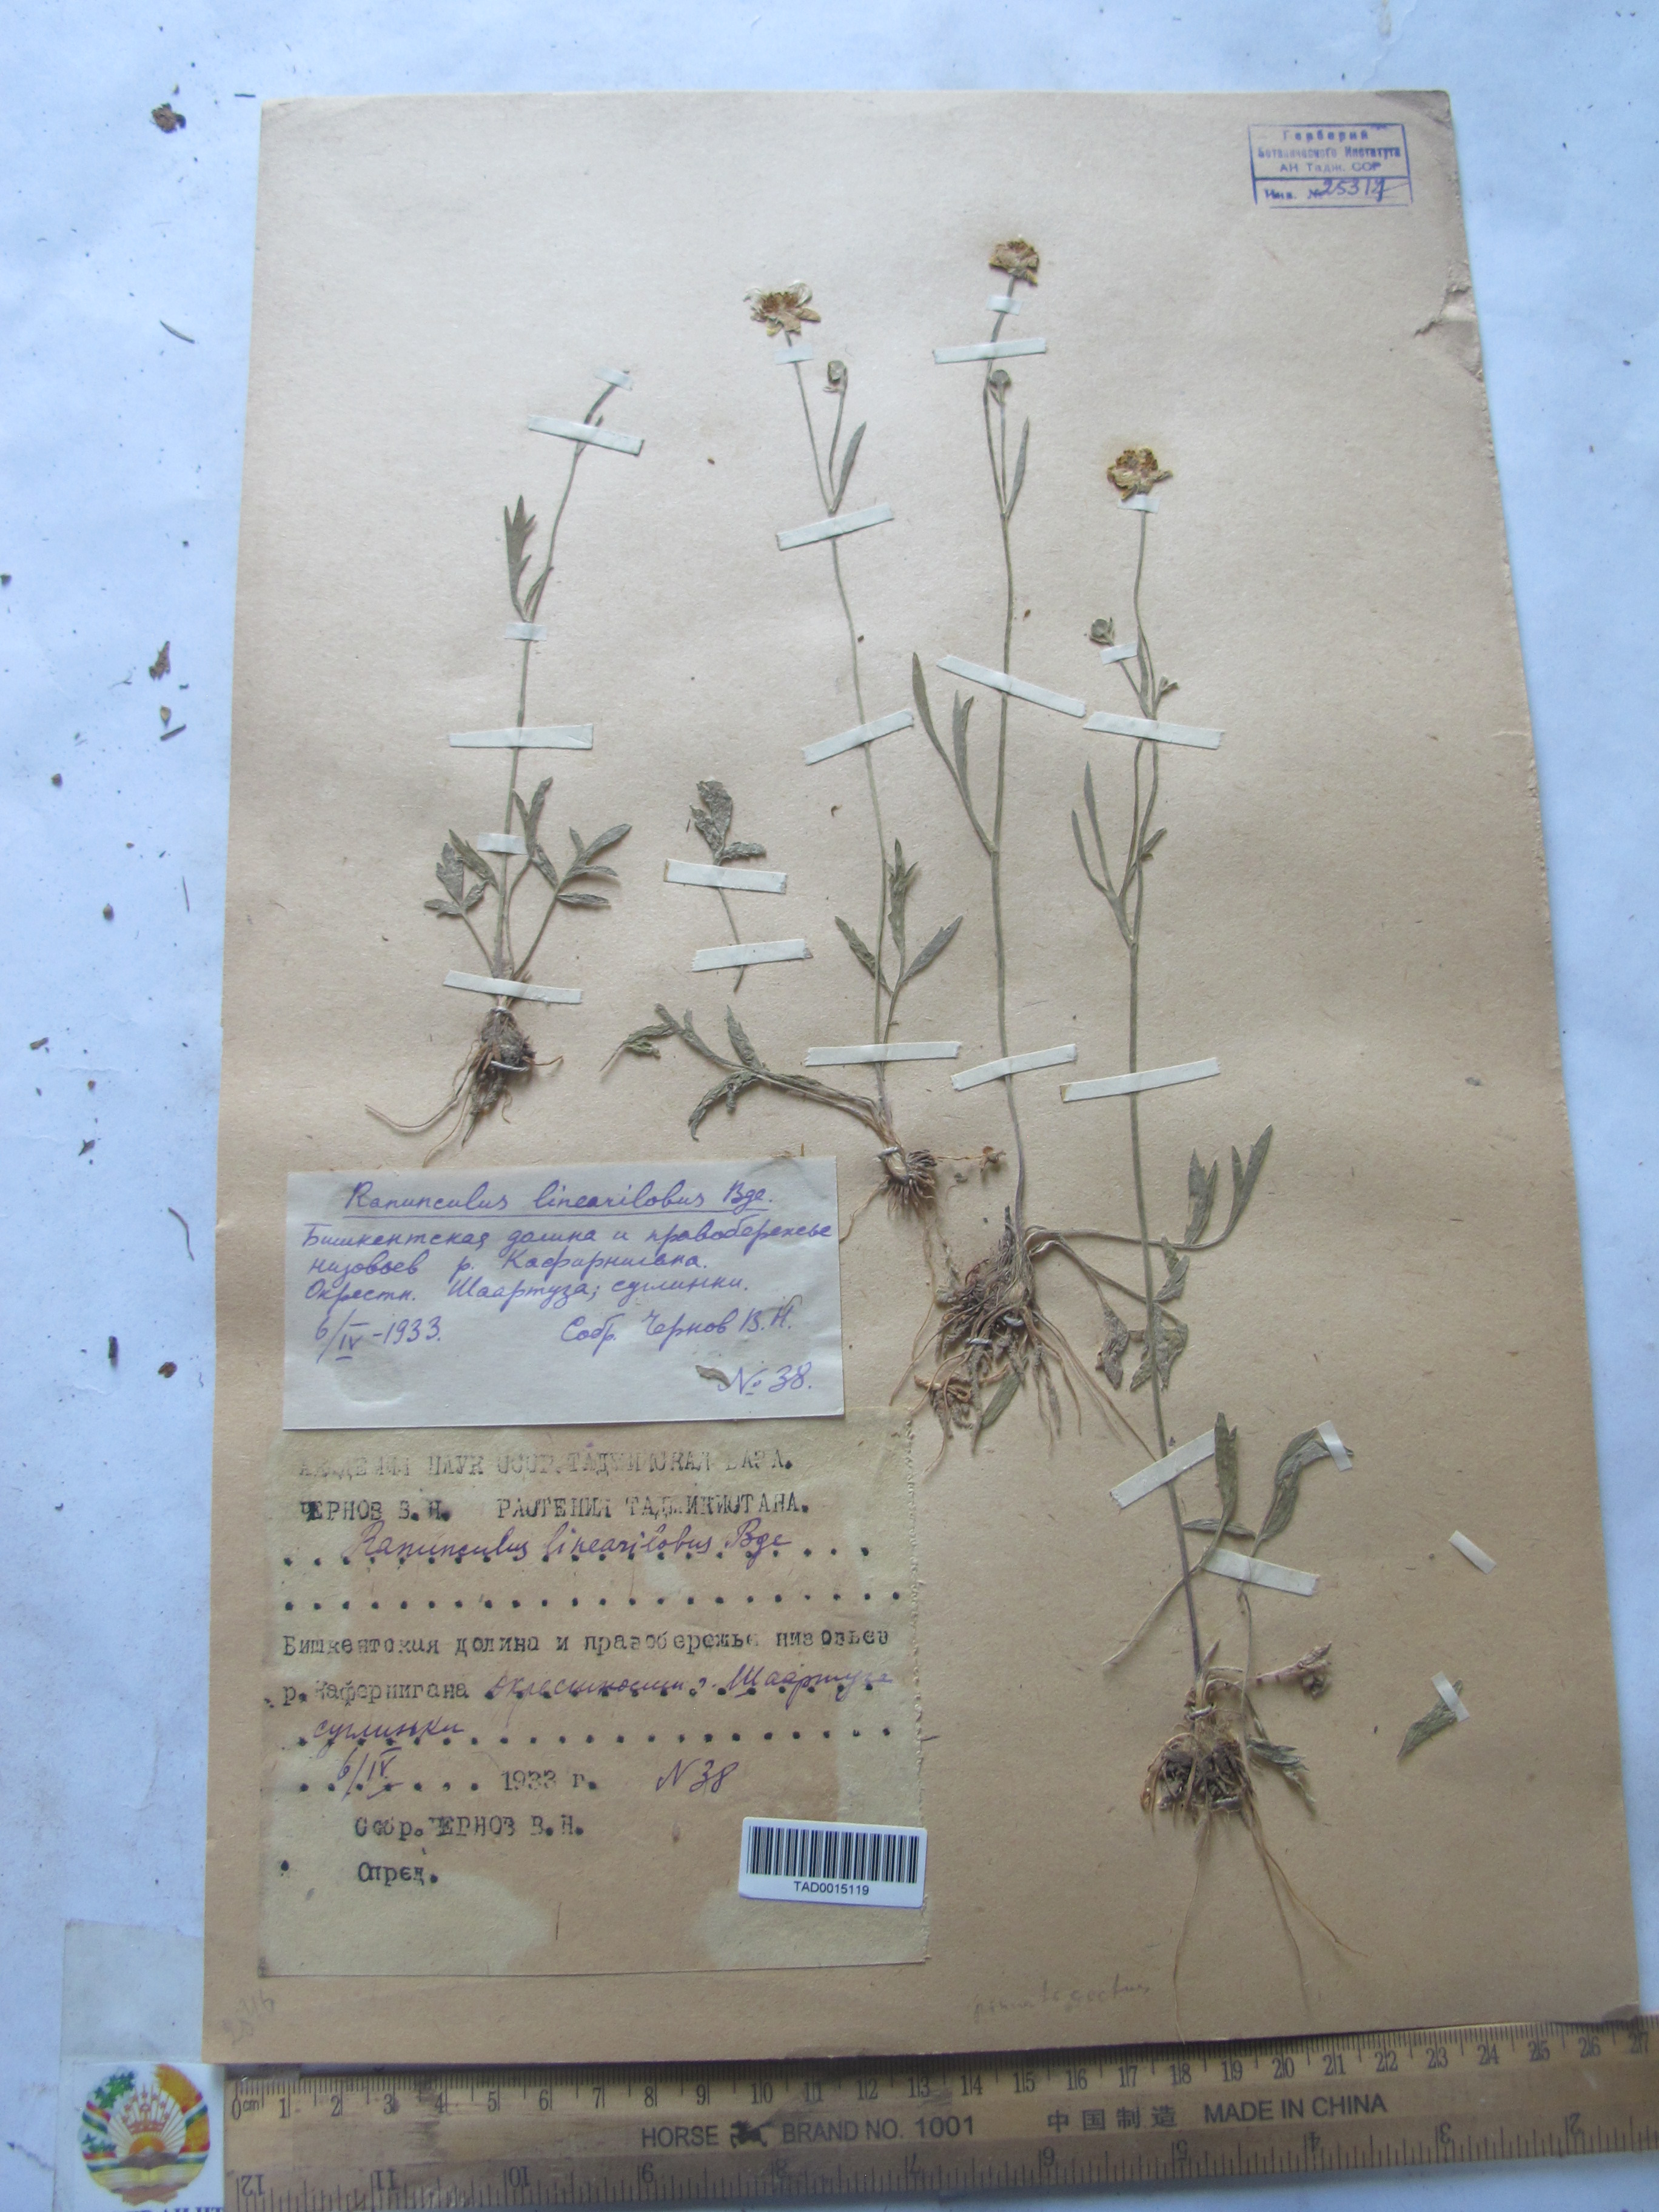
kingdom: Plantae
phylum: Tracheophyta
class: Magnoliopsida
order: Ranunculales
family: Ranunculaceae
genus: Ranunculus
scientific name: Ranunculus linearilobus
